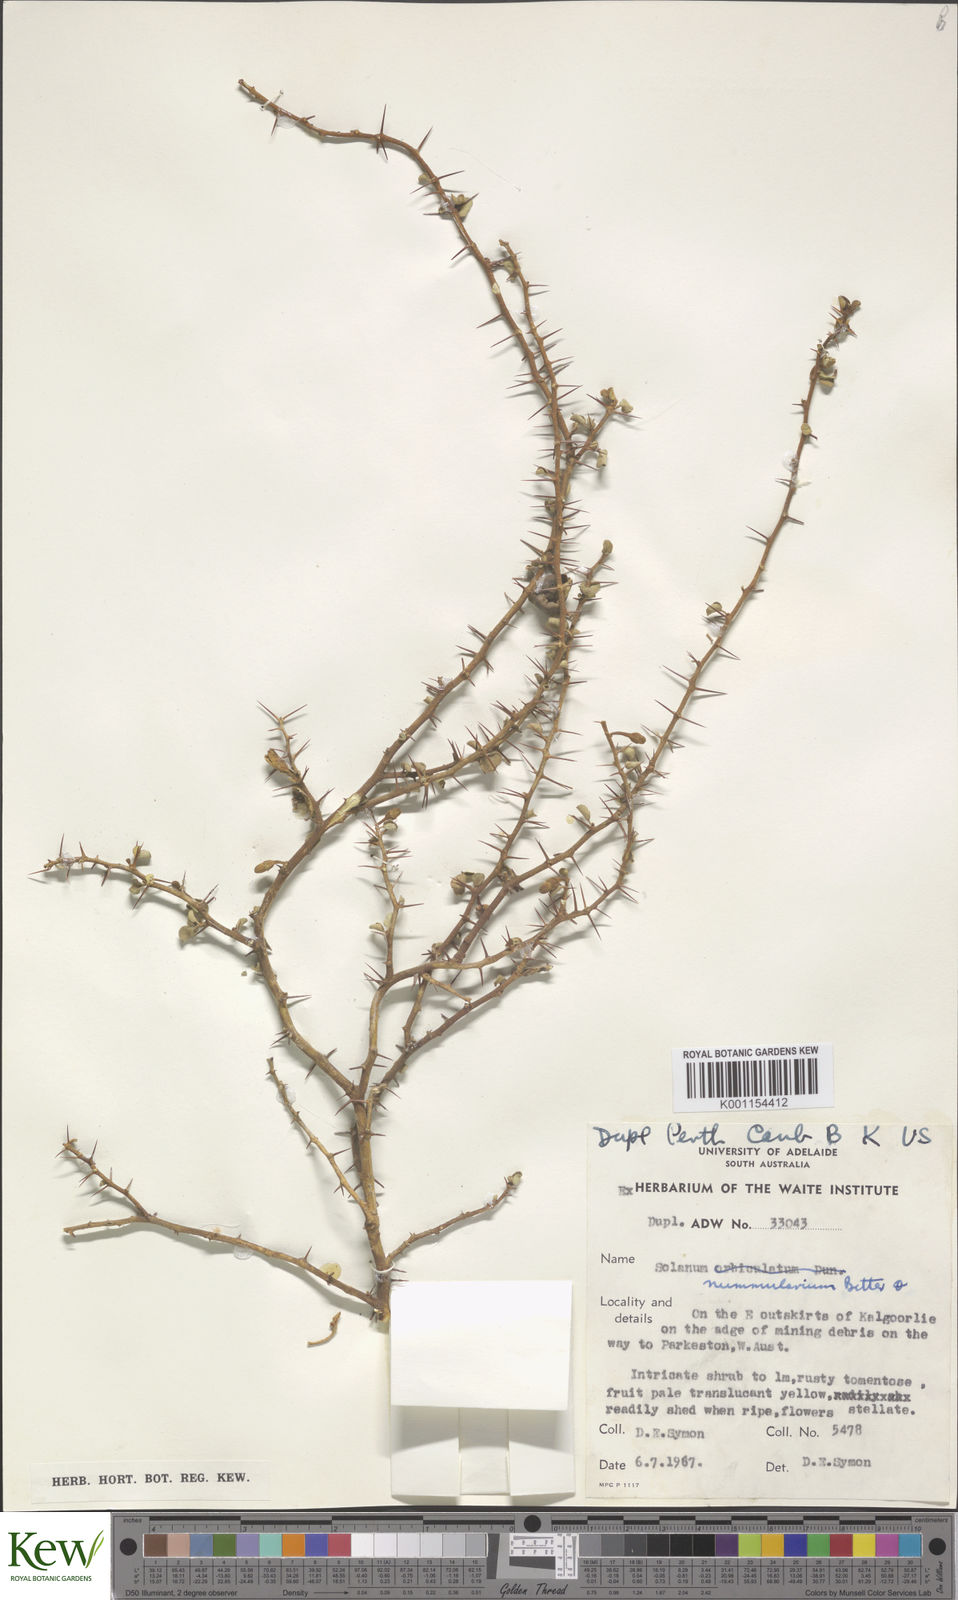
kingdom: Plantae
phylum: Tracheophyta
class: Magnoliopsida
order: Solanales
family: Solanaceae
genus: Solanum
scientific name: Solanum nummularium
